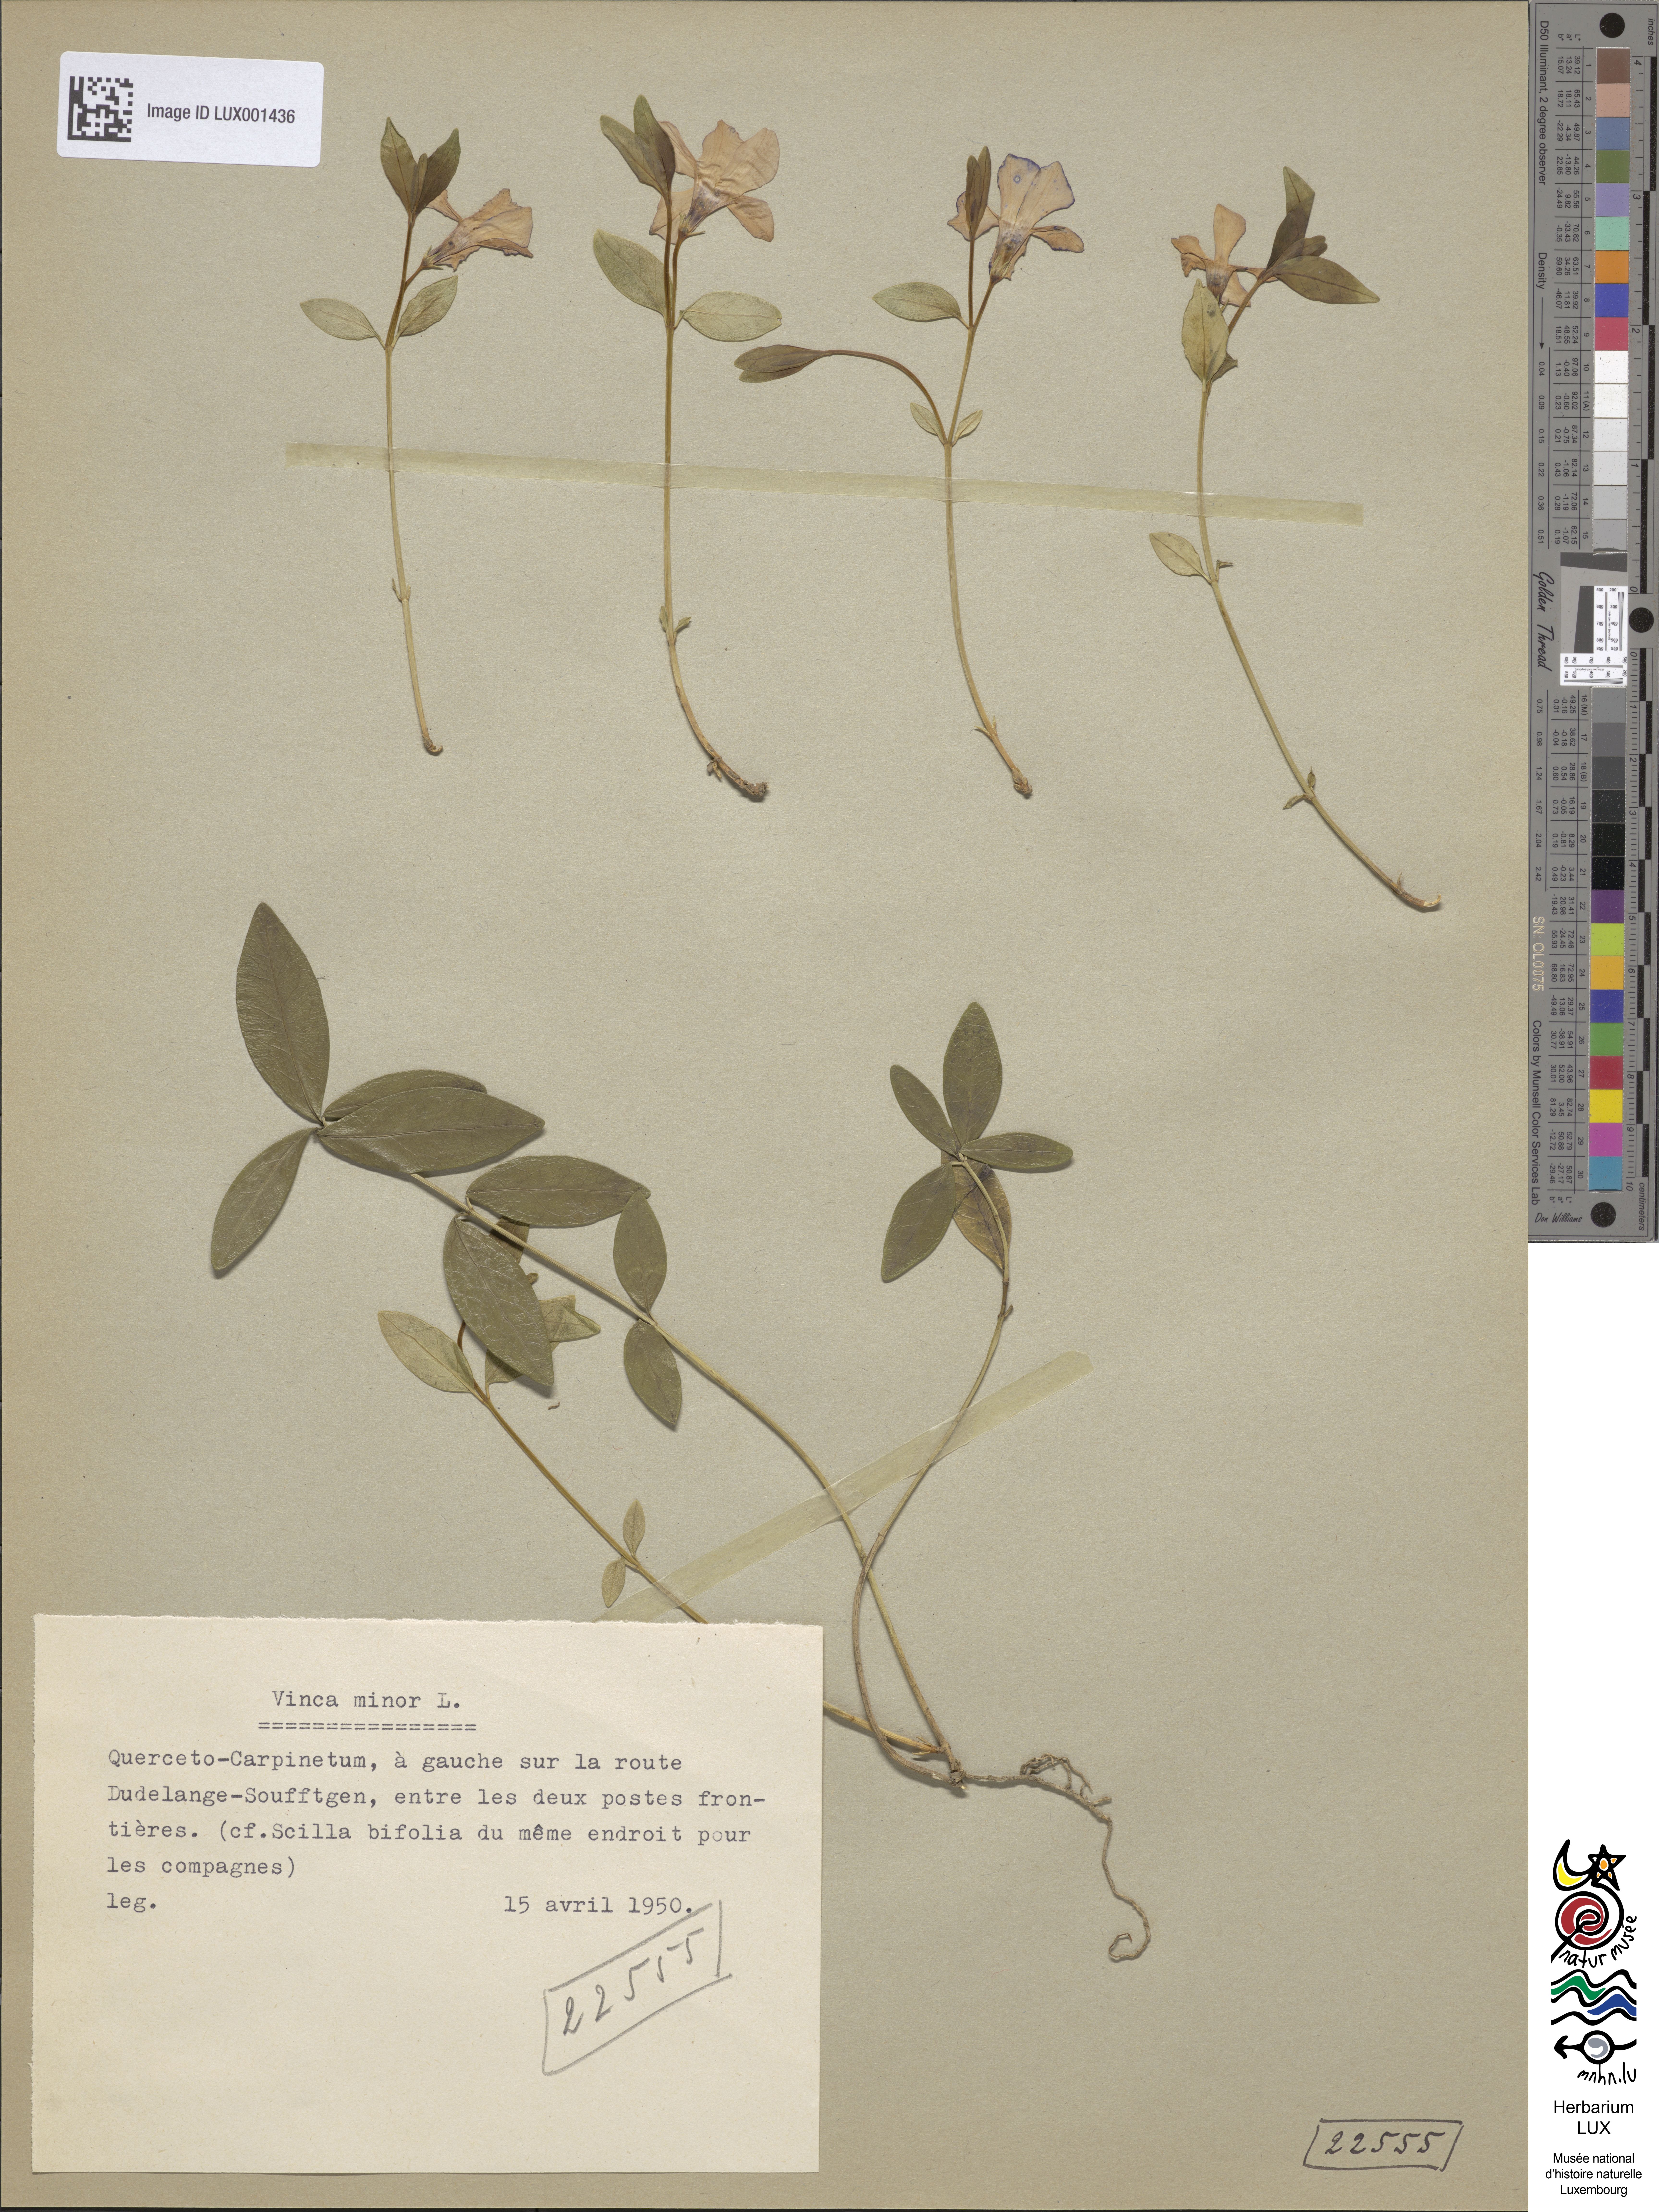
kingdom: Plantae
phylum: Tracheophyta
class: Magnoliopsida
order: Gentianales
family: Apocynaceae
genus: Vinca
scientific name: Vinca minor
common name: Lesser periwinkle
